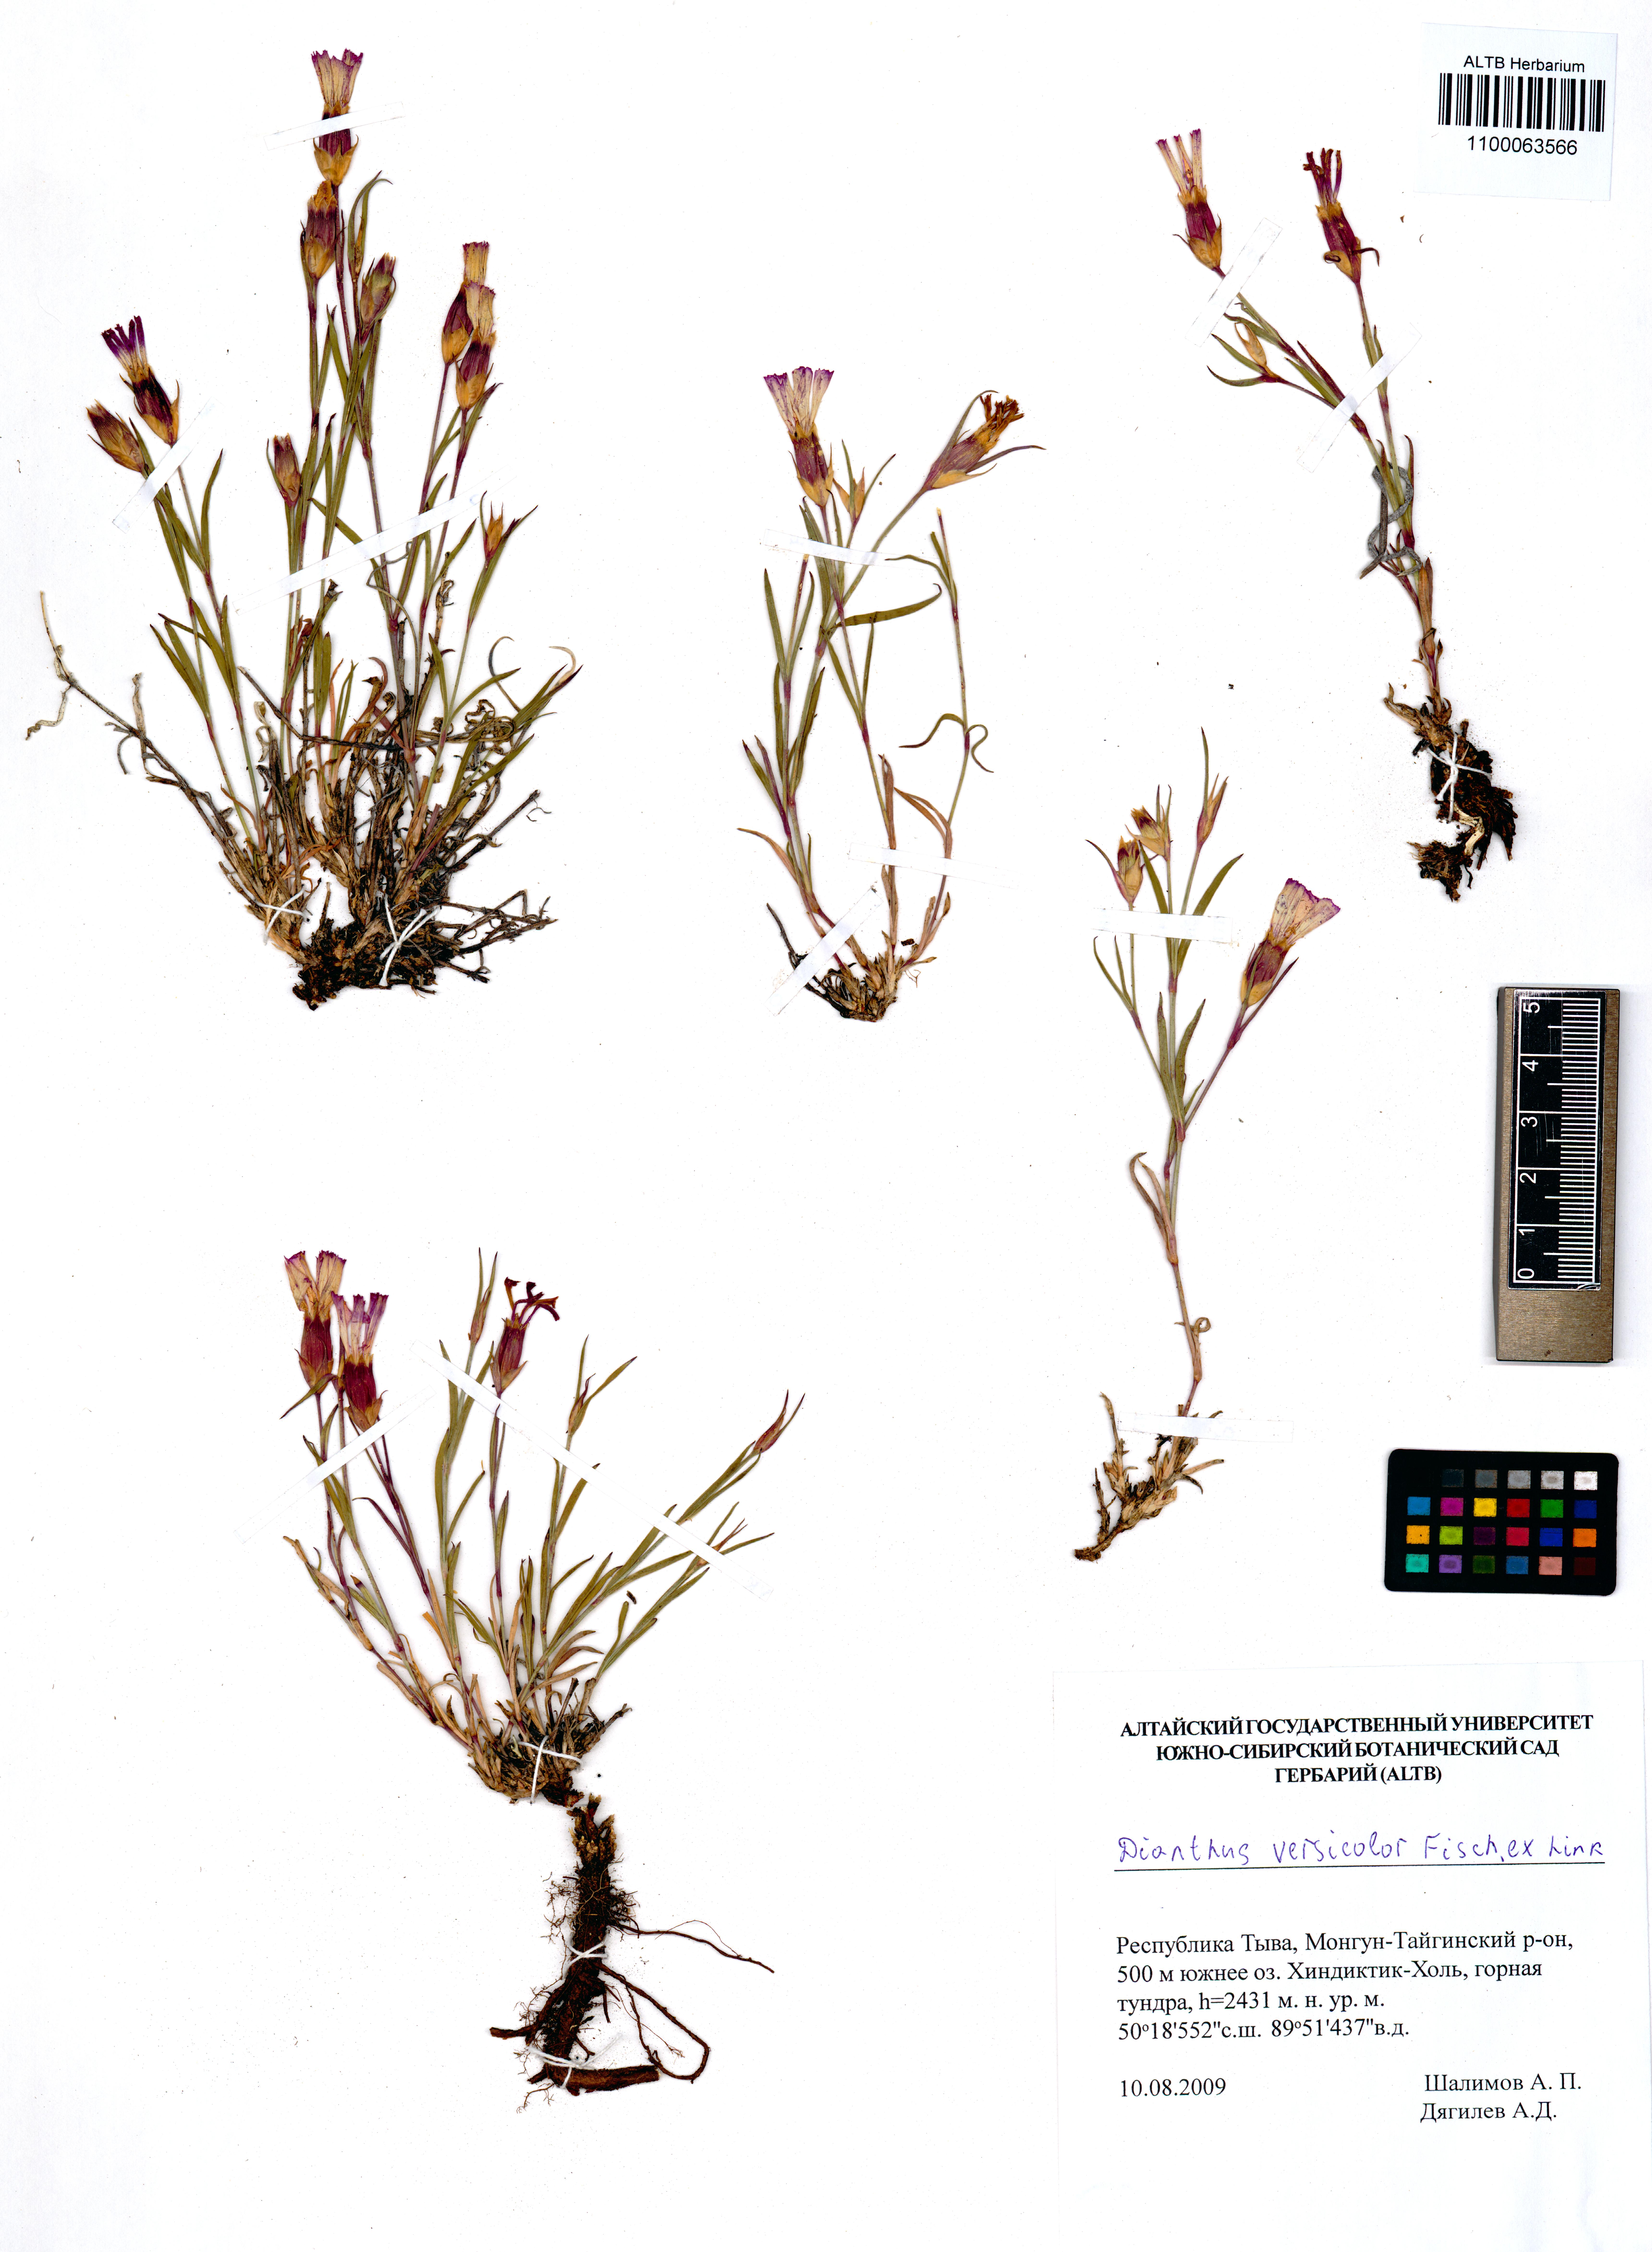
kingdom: Plantae
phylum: Tracheophyta
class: Magnoliopsida
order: Caryophyllales
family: Caryophyllaceae
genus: Dianthus
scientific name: Dianthus chinensis
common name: Rainbow pink
